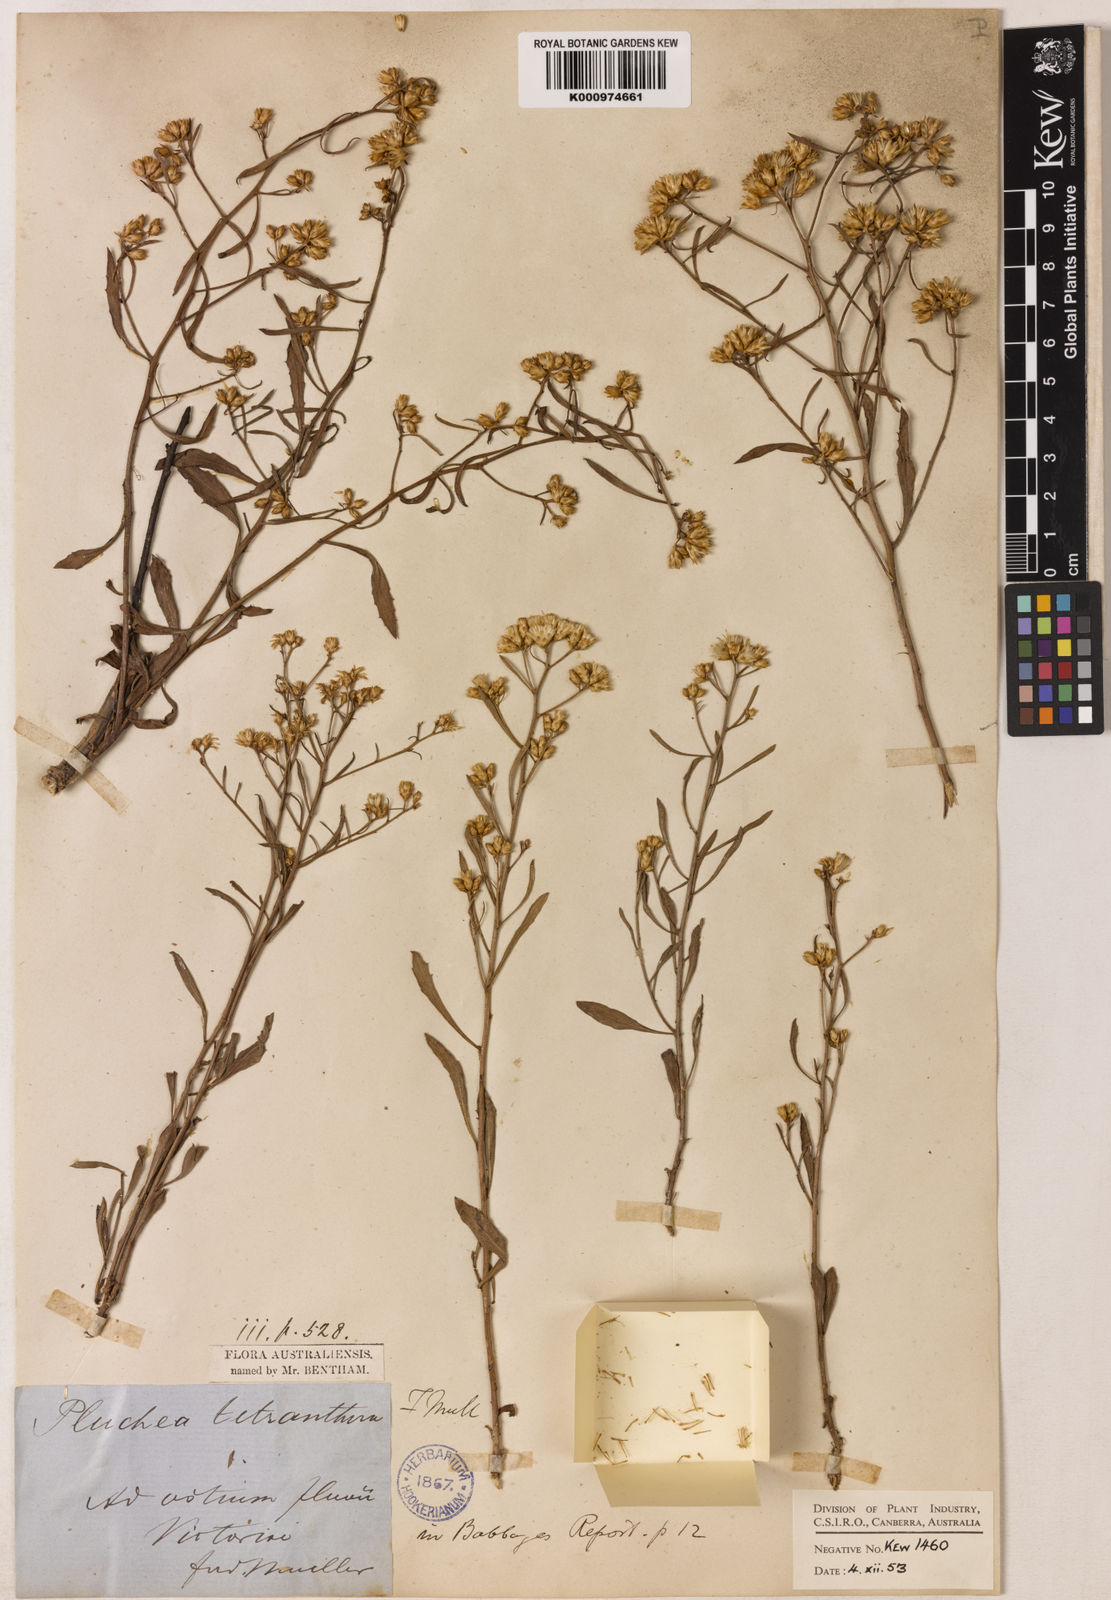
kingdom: Plantae
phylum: Tracheophyta
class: Magnoliopsida
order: Asterales
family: Asteraceae
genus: Pluchea
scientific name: Pluchea tetranthera
